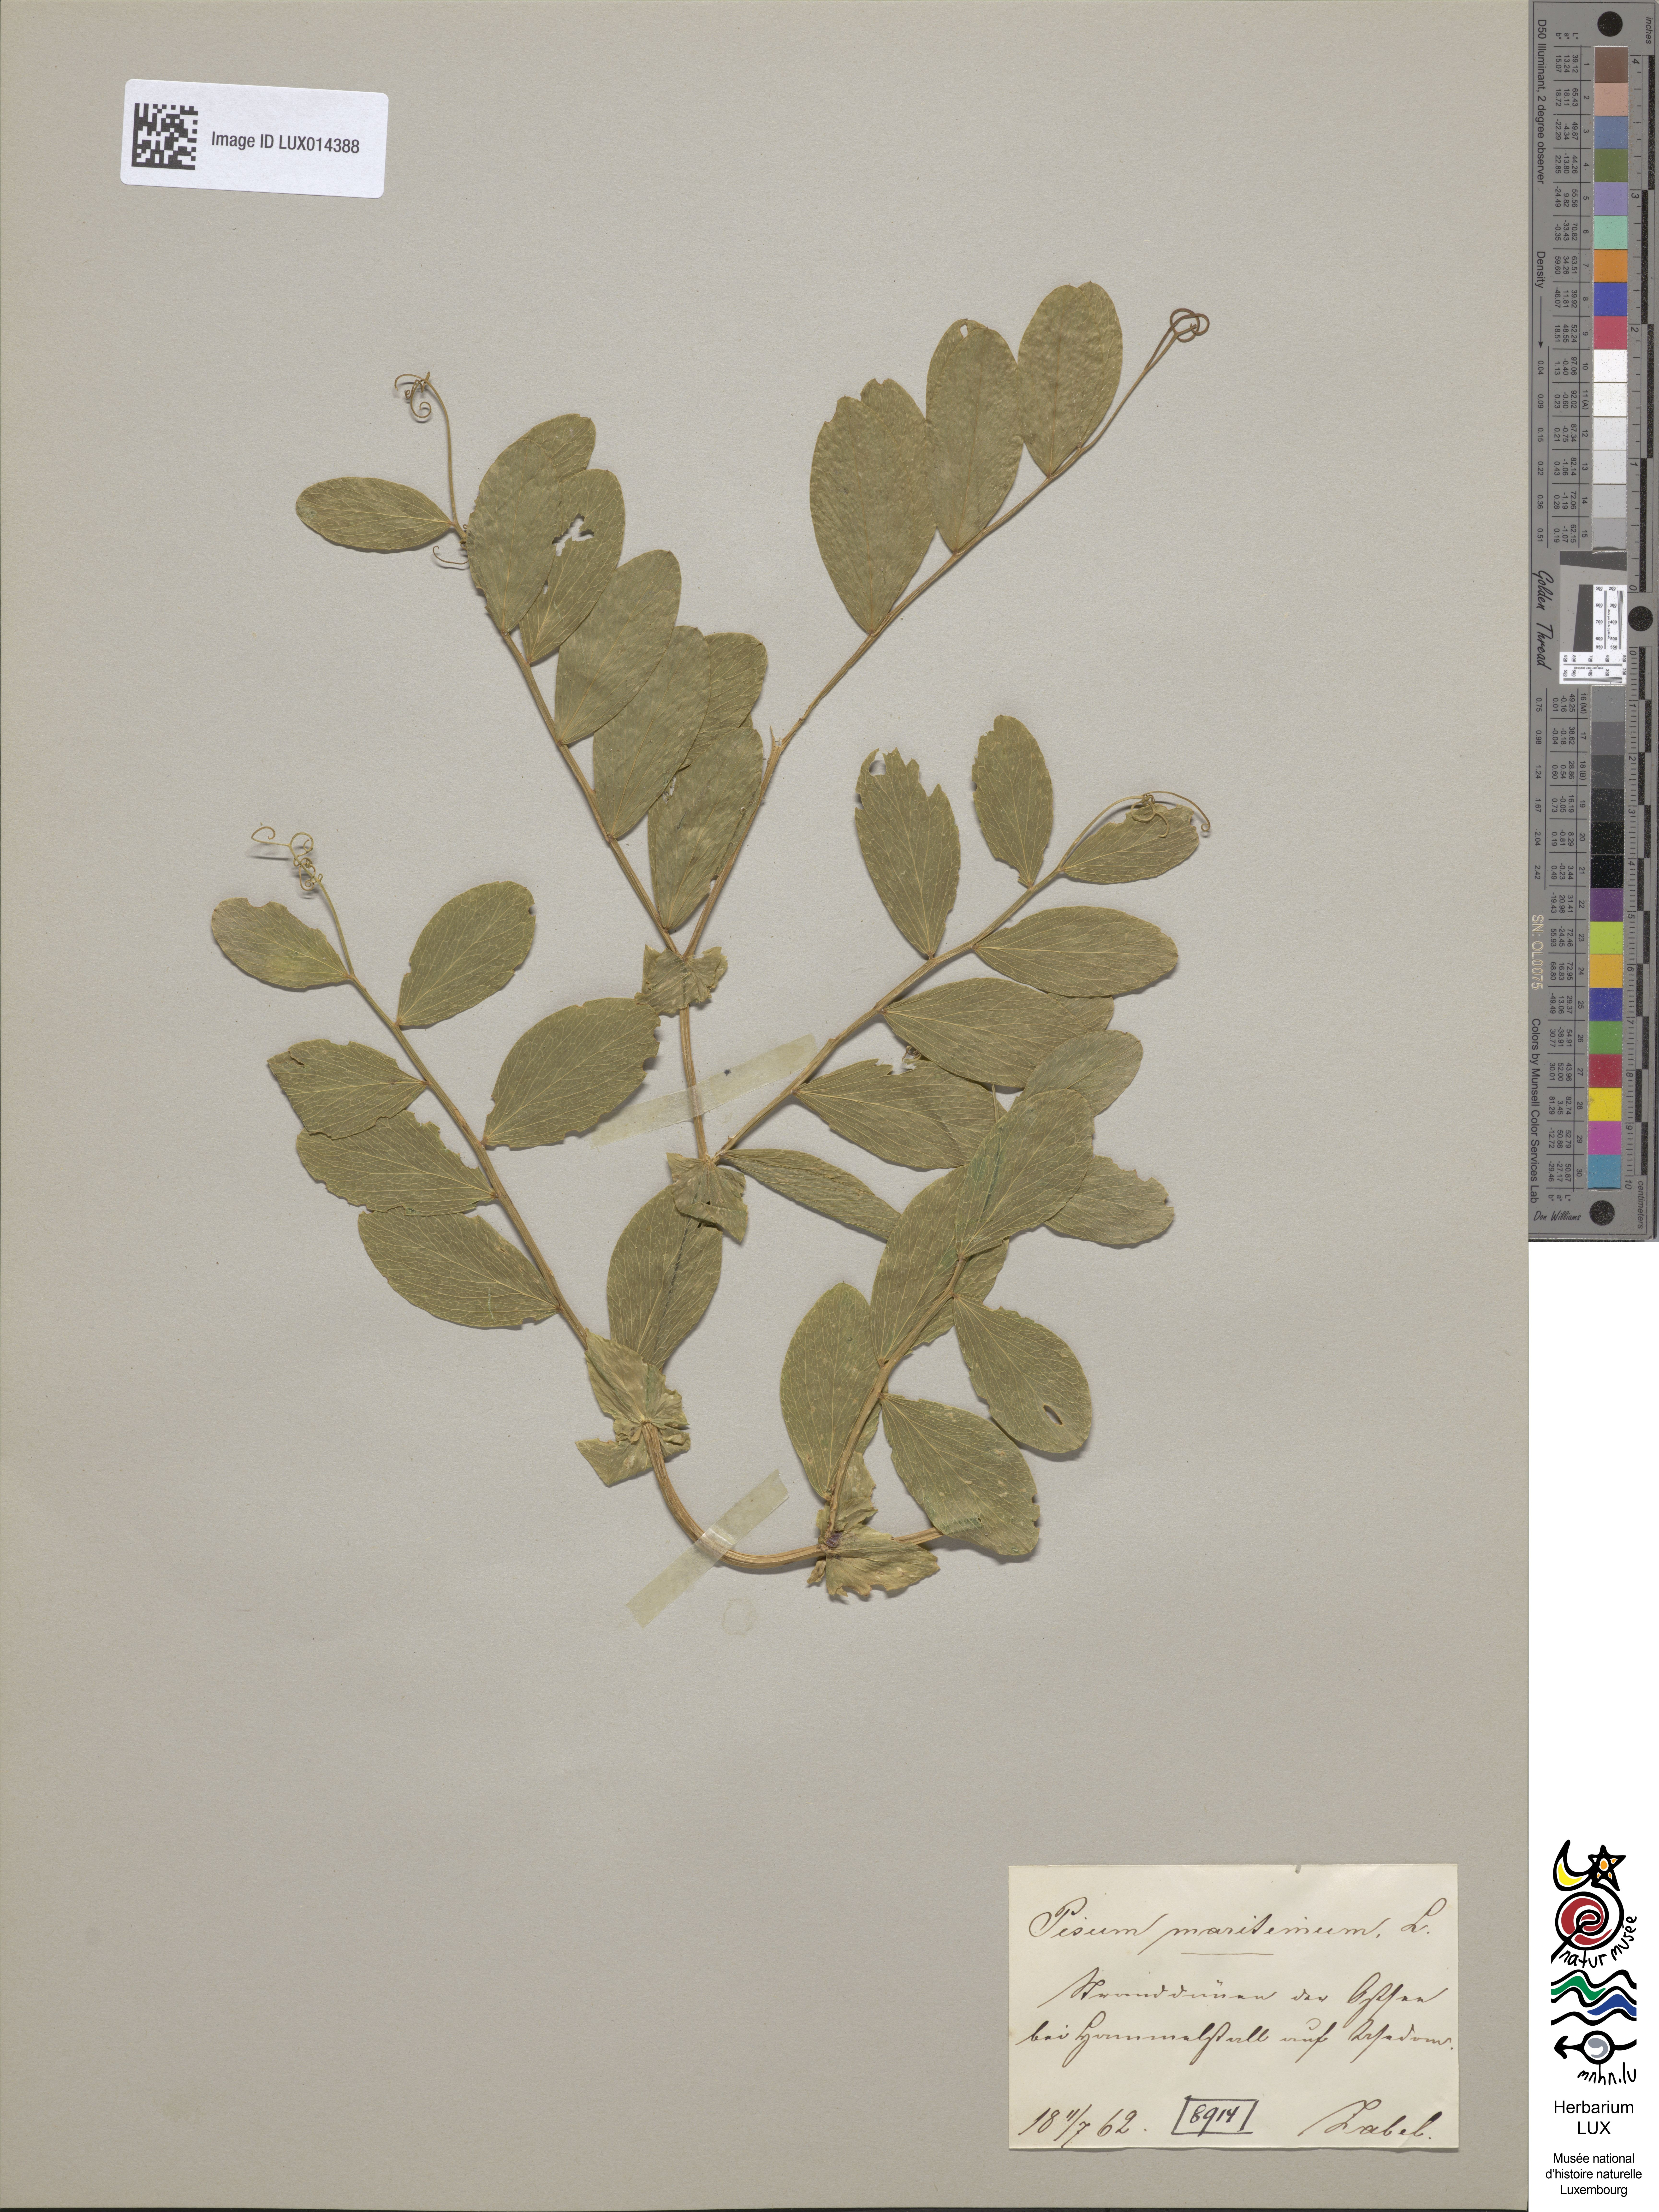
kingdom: Plantae
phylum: Tracheophyta
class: Magnoliopsida
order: Fabales
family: Fabaceae
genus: Lathyrus
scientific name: Lathyrus japonicus
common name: Sea pea
